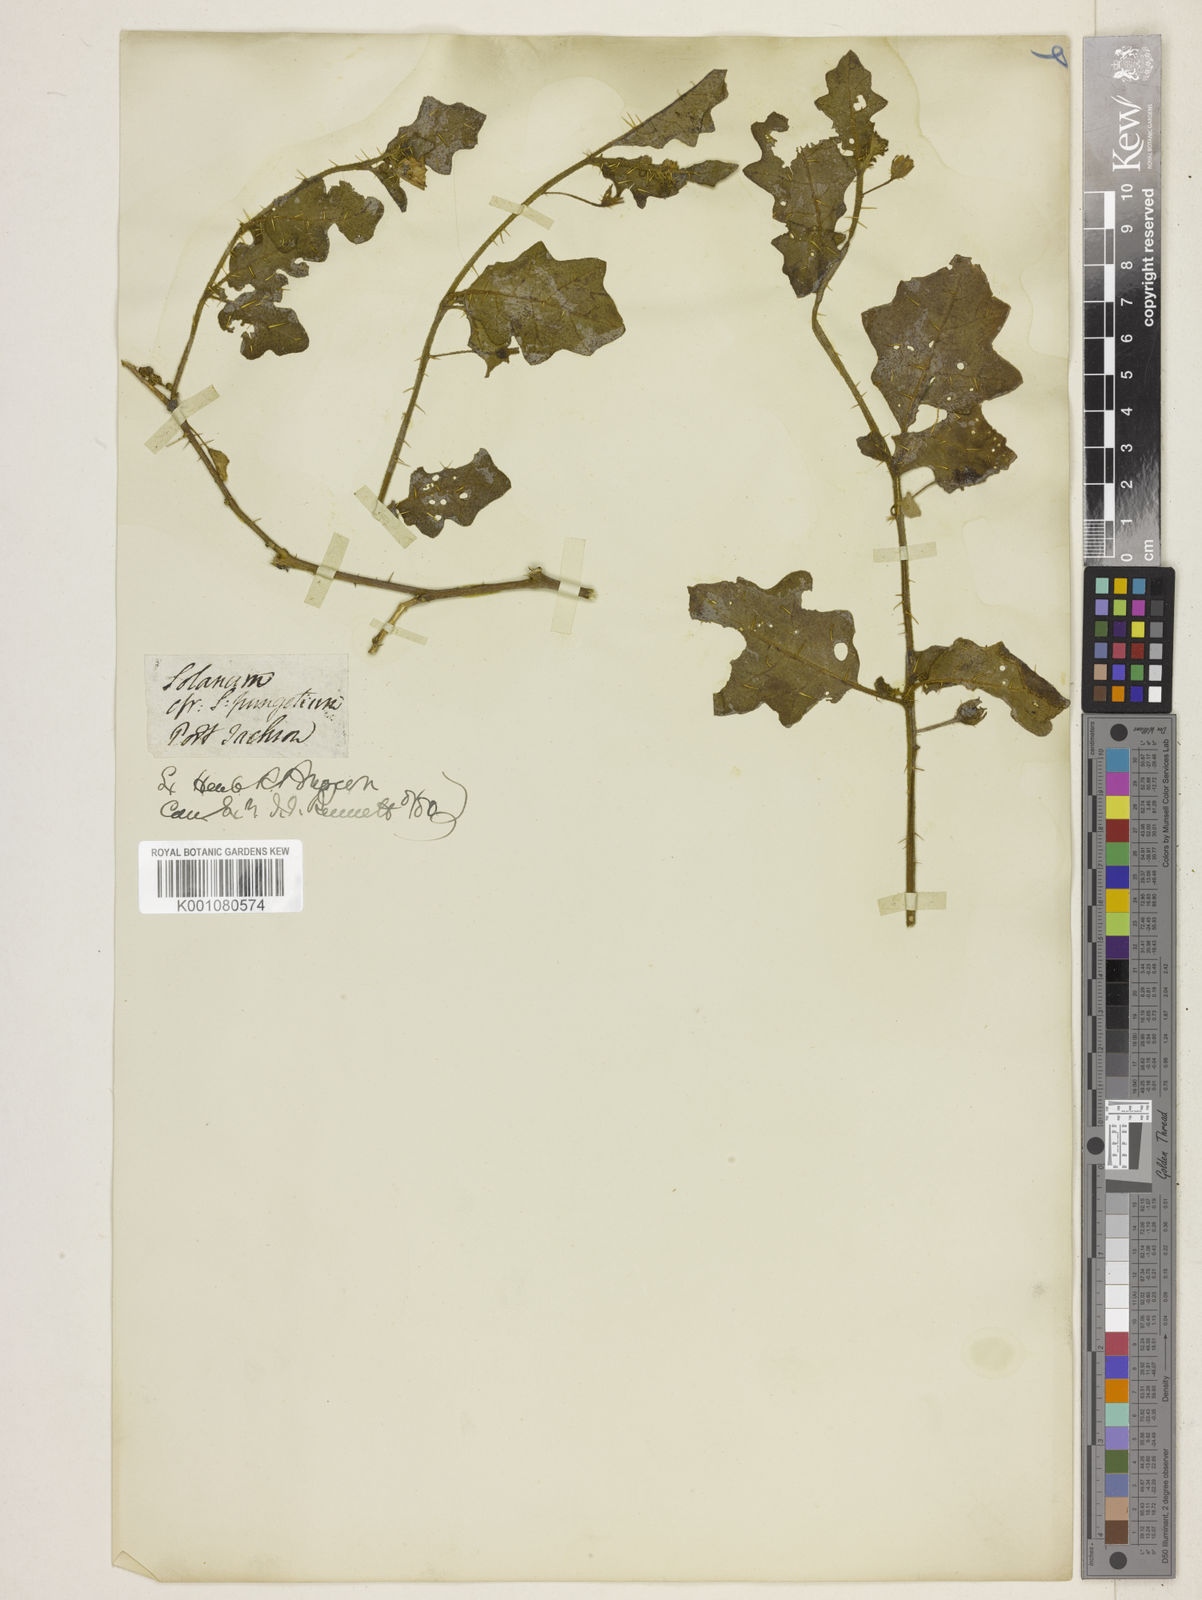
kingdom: Plantae
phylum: Tracheophyta
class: Magnoliopsida
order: Solanales
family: Solanaceae
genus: Solanum
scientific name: Solanum pungetium
